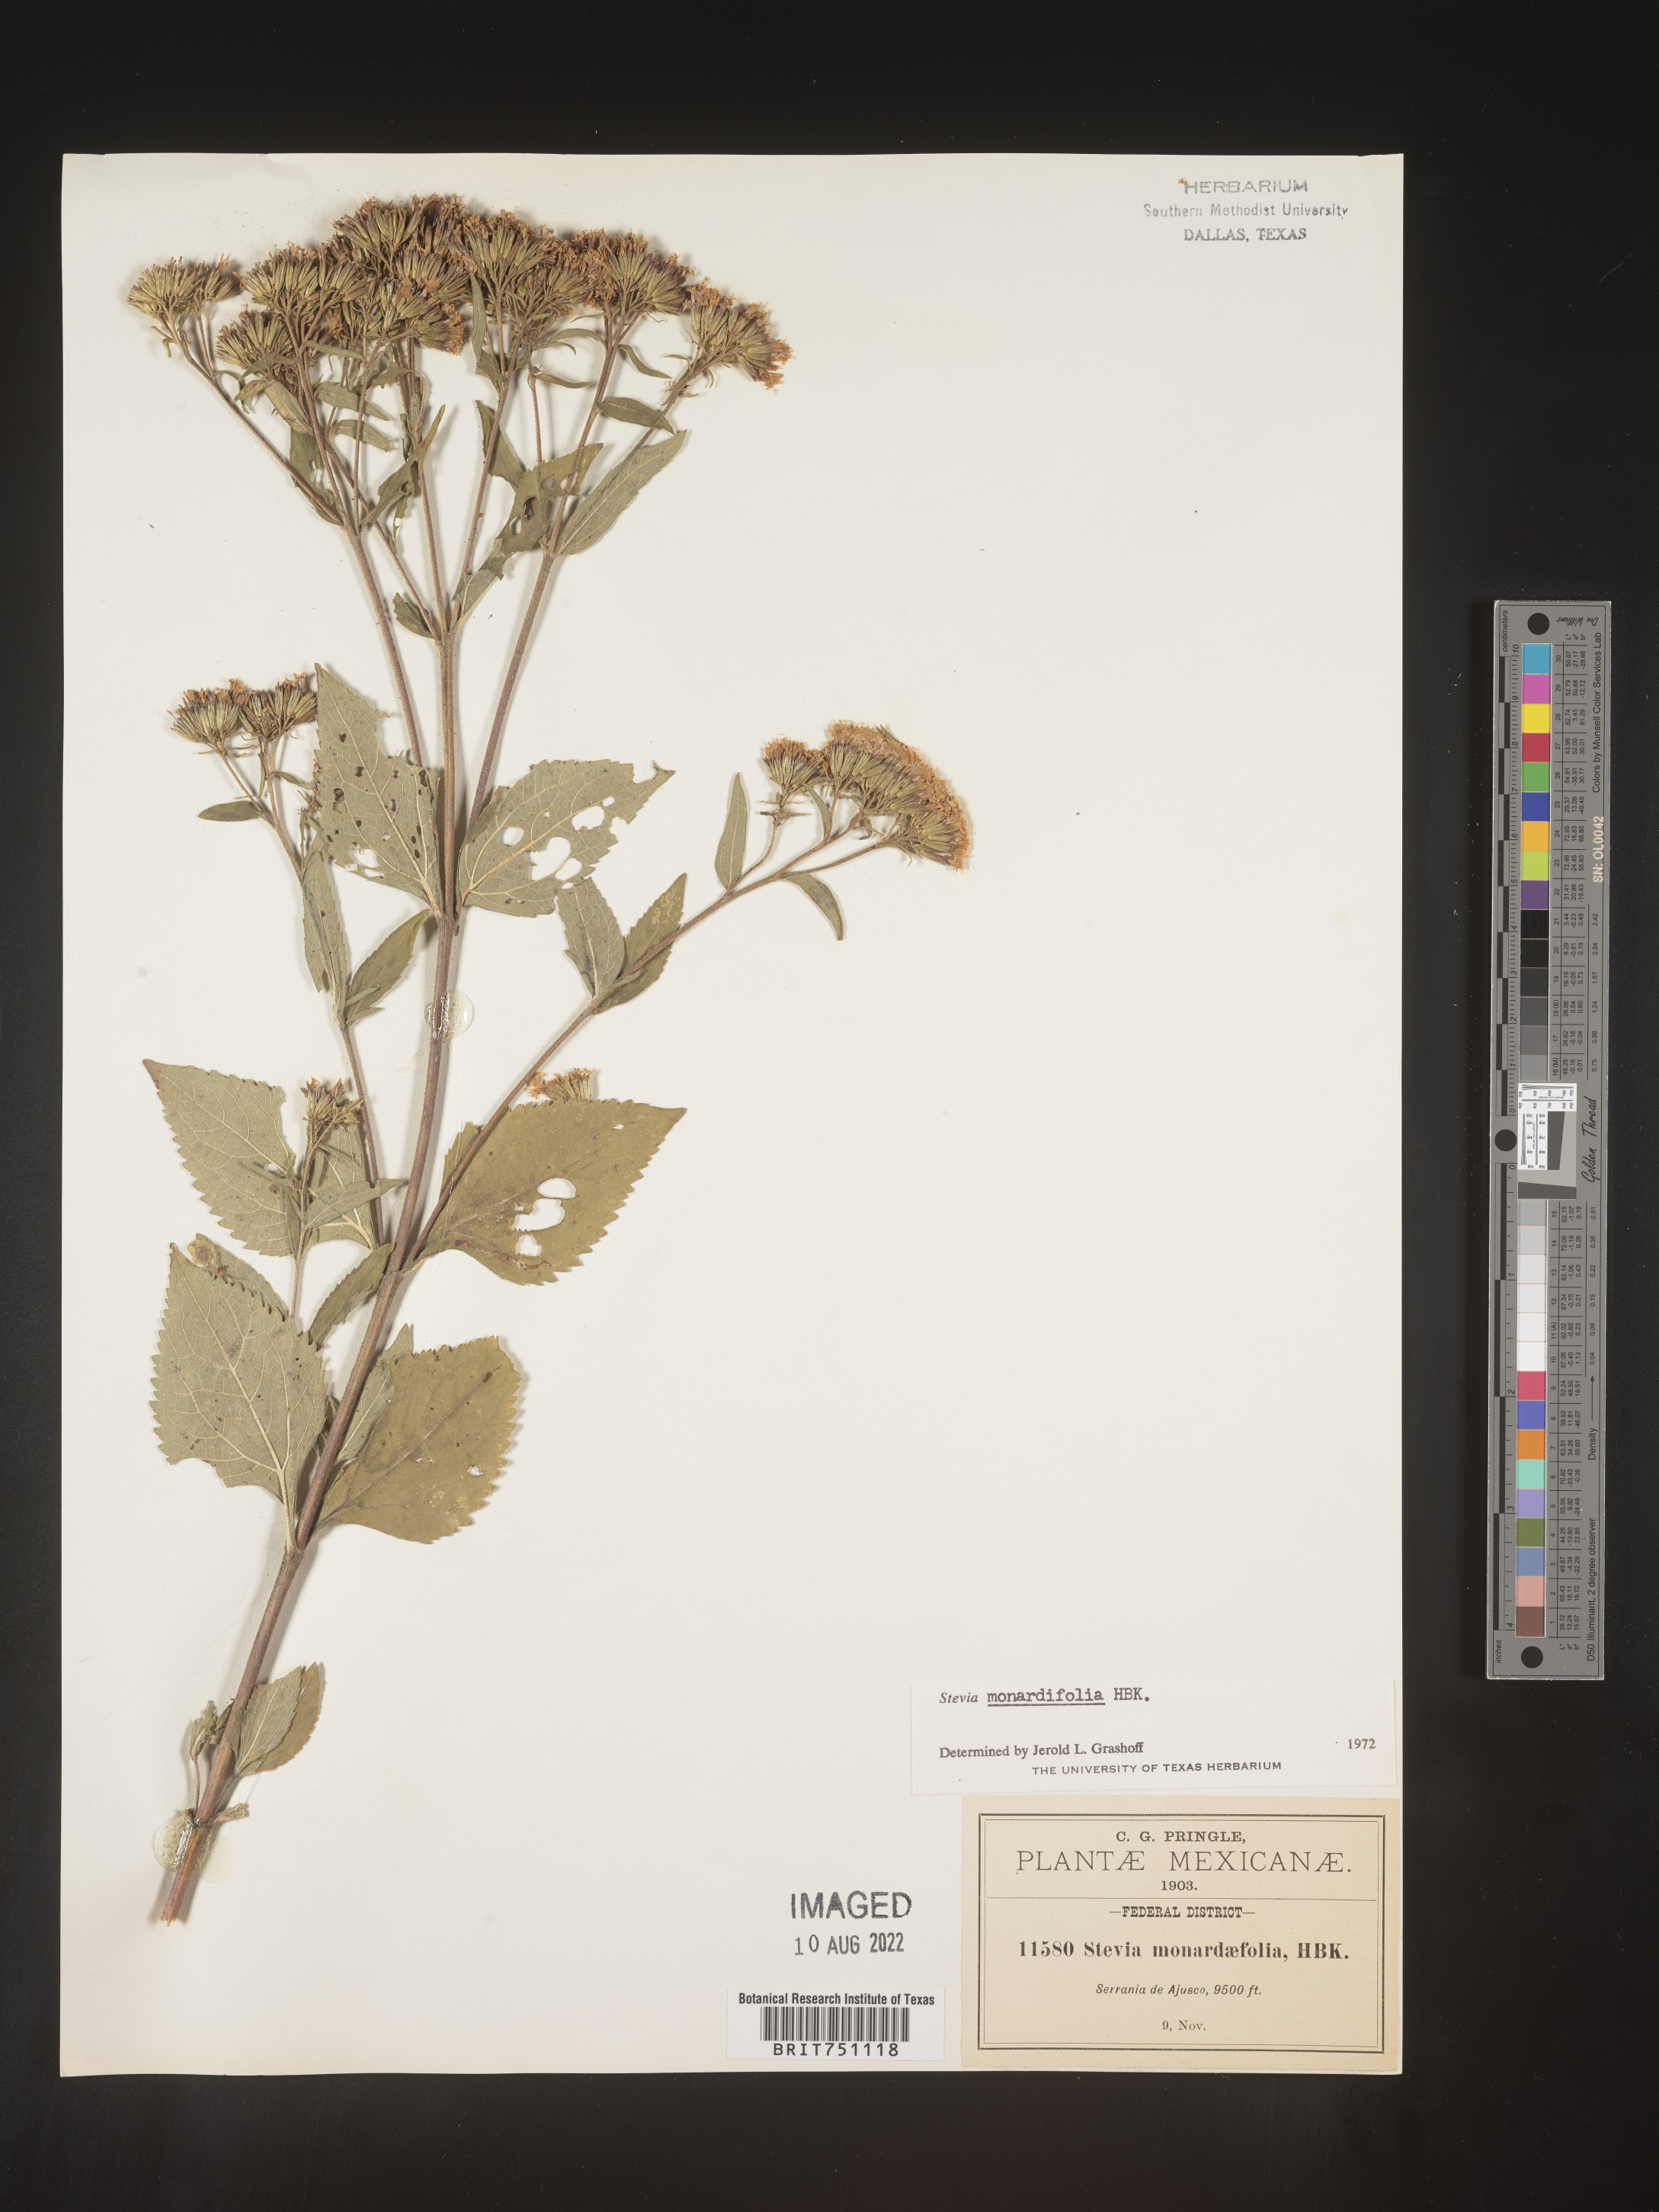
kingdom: Plantae
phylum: Tracheophyta
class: Magnoliopsida
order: Asterales
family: Asteraceae
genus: Stevia
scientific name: Stevia
